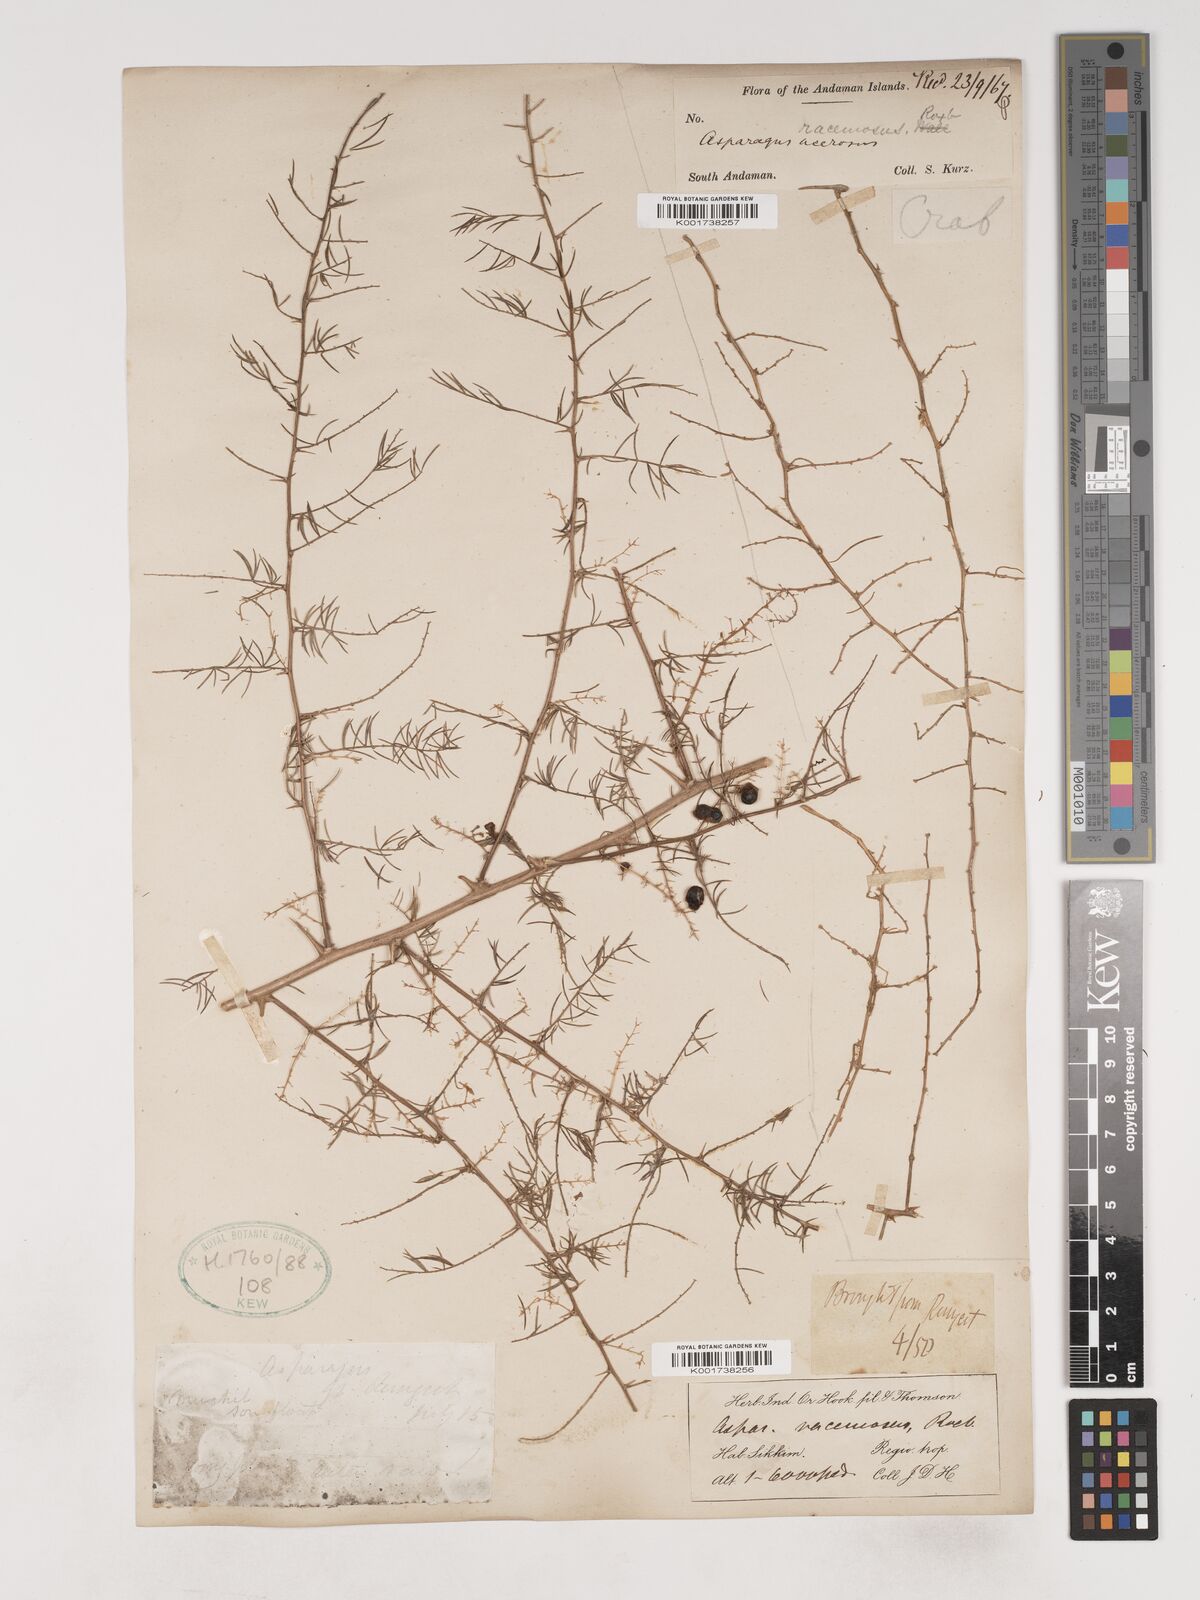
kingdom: Plantae
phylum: Tracheophyta
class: Liliopsida
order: Asparagales
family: Asparagaceae
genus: Asparagus
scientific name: Asparagus racemosus
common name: Asparagus-fern
